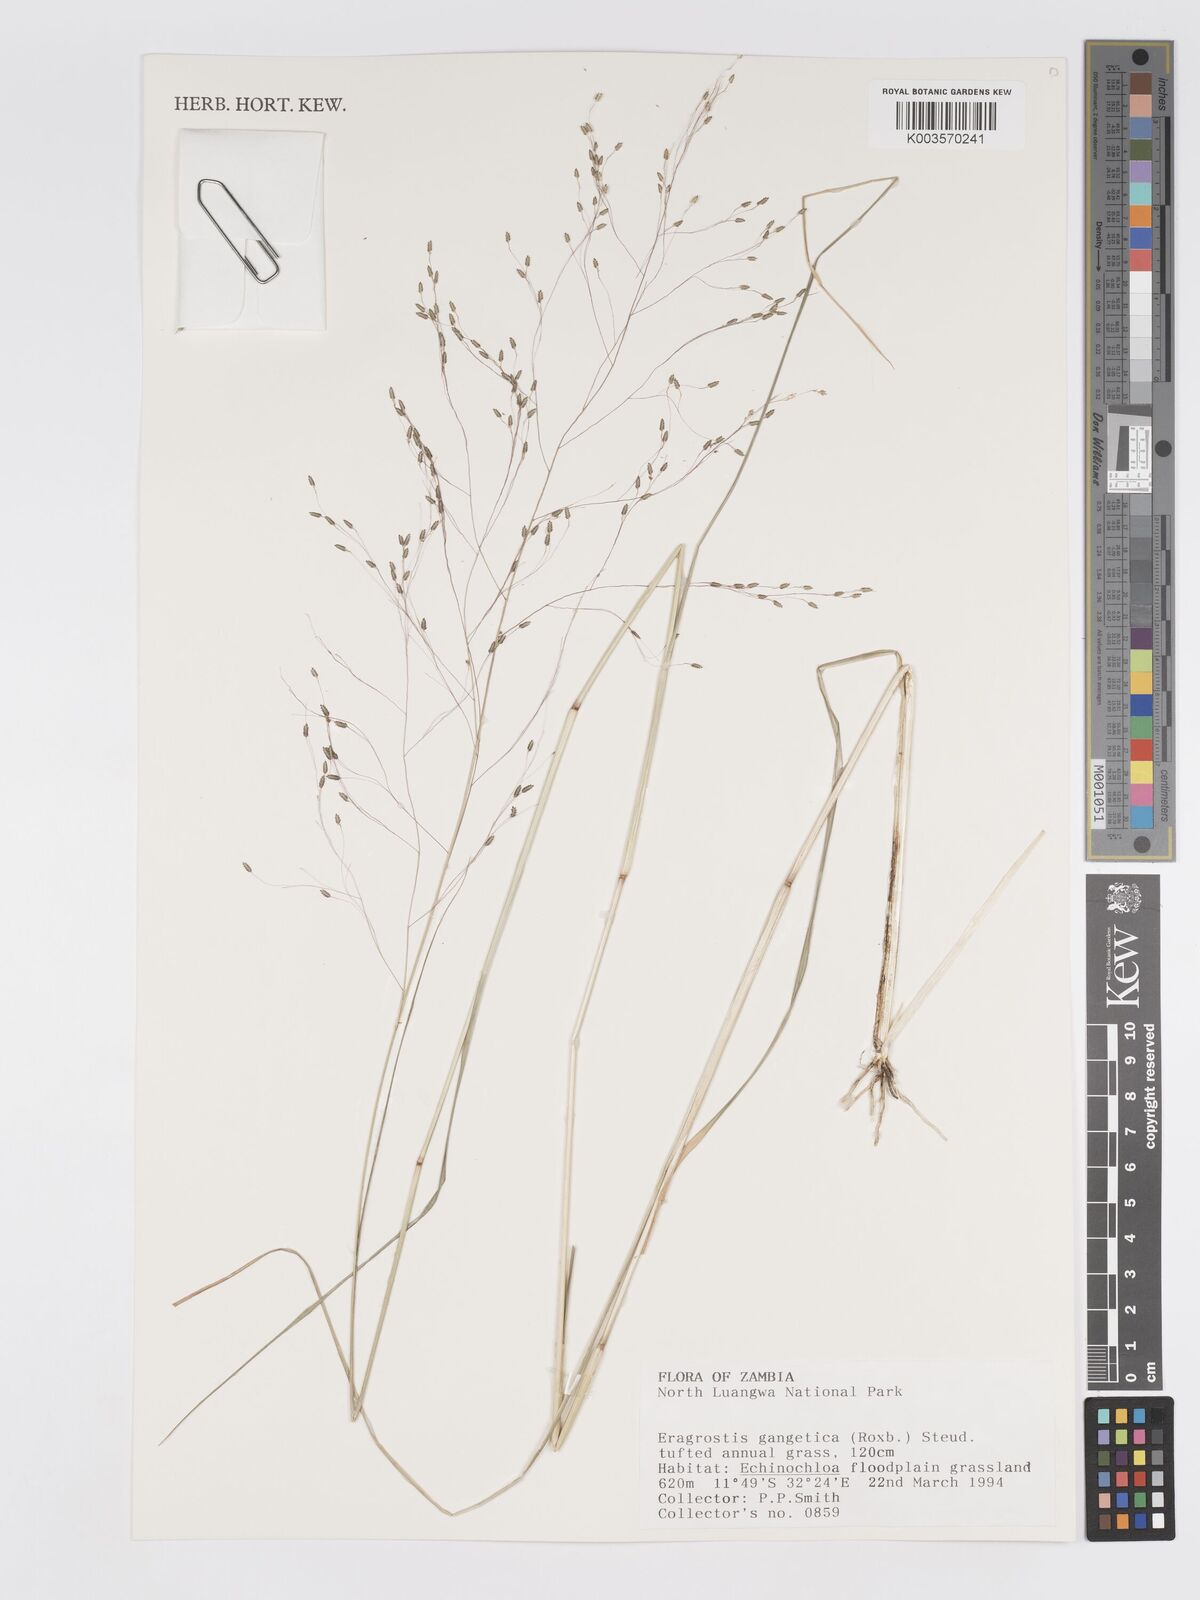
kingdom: Plantae
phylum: Tracheophyta
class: Liliopsida
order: Poales
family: Poaceae
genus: Eragrostis
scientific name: Eragrostis gangetica
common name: Slimflower lovegrass
